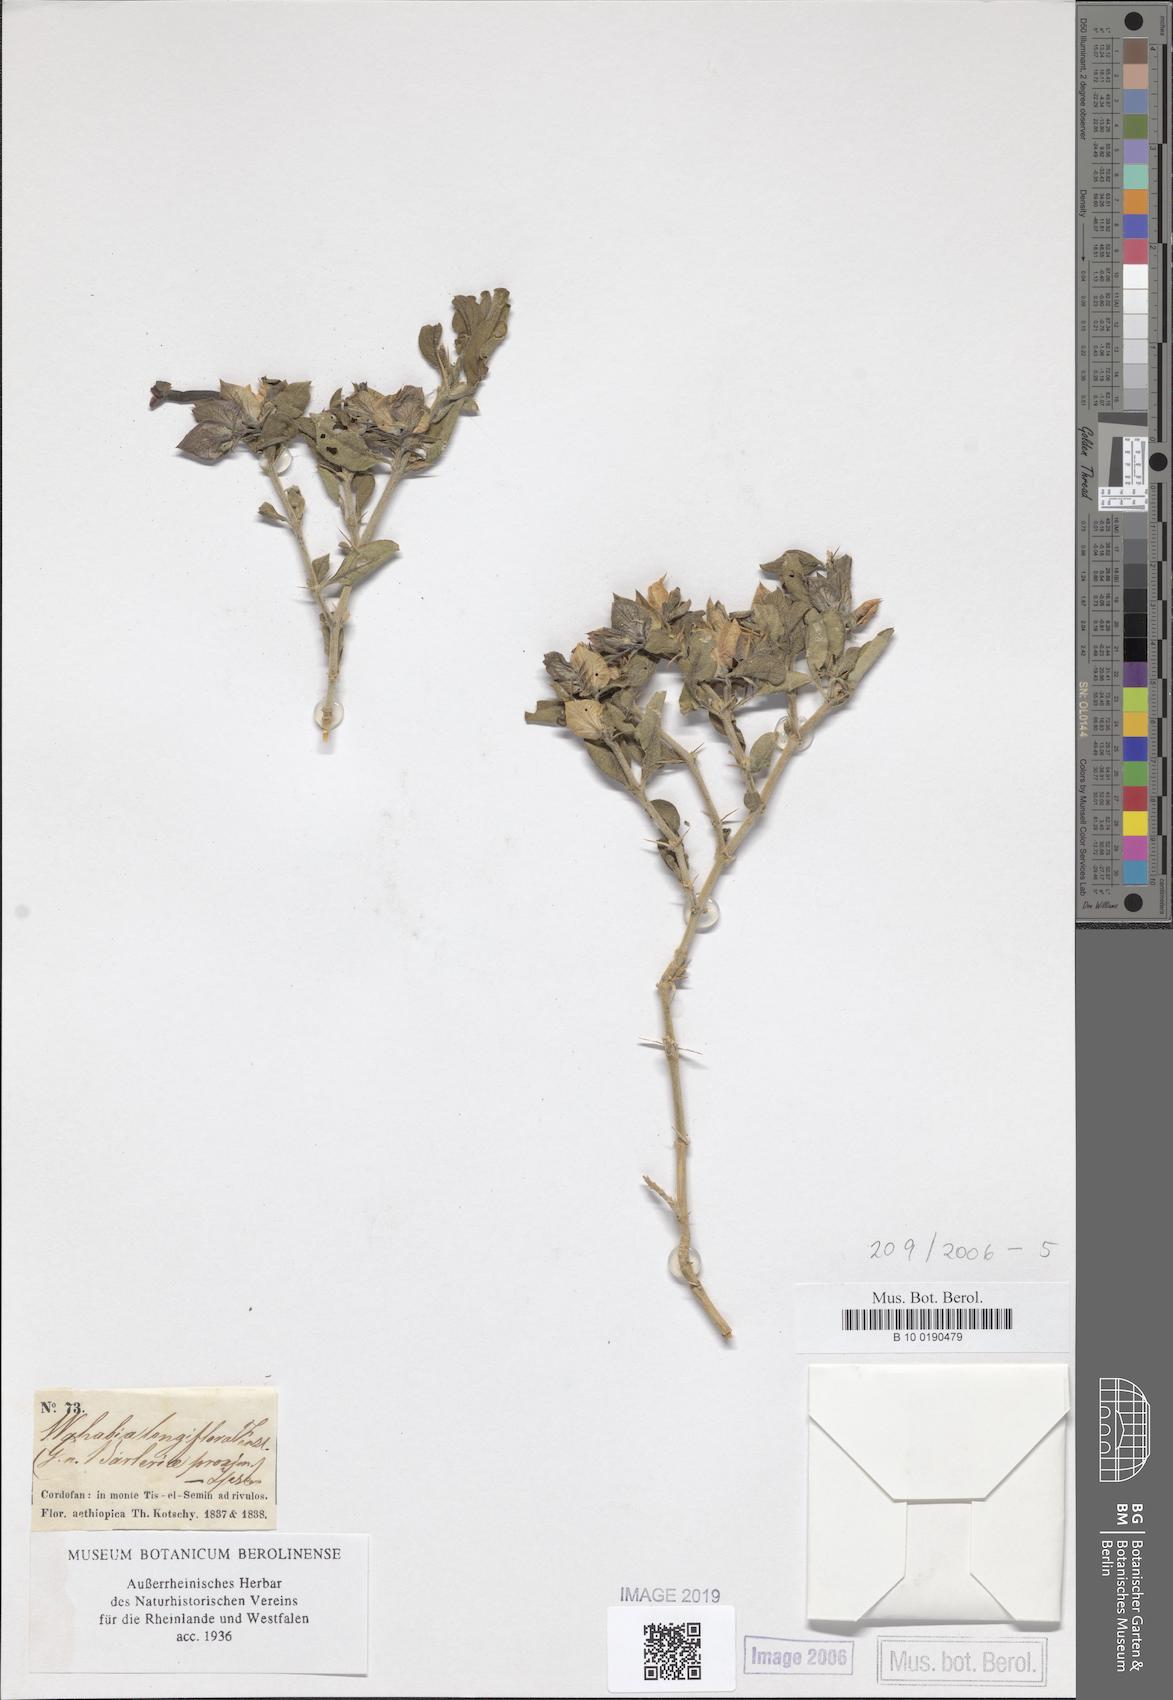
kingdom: Plantae
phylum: Tracheophyta
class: Magnoliopsida
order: Lamiales
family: Acanthaceae
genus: Barleria
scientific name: Barleria proxima
